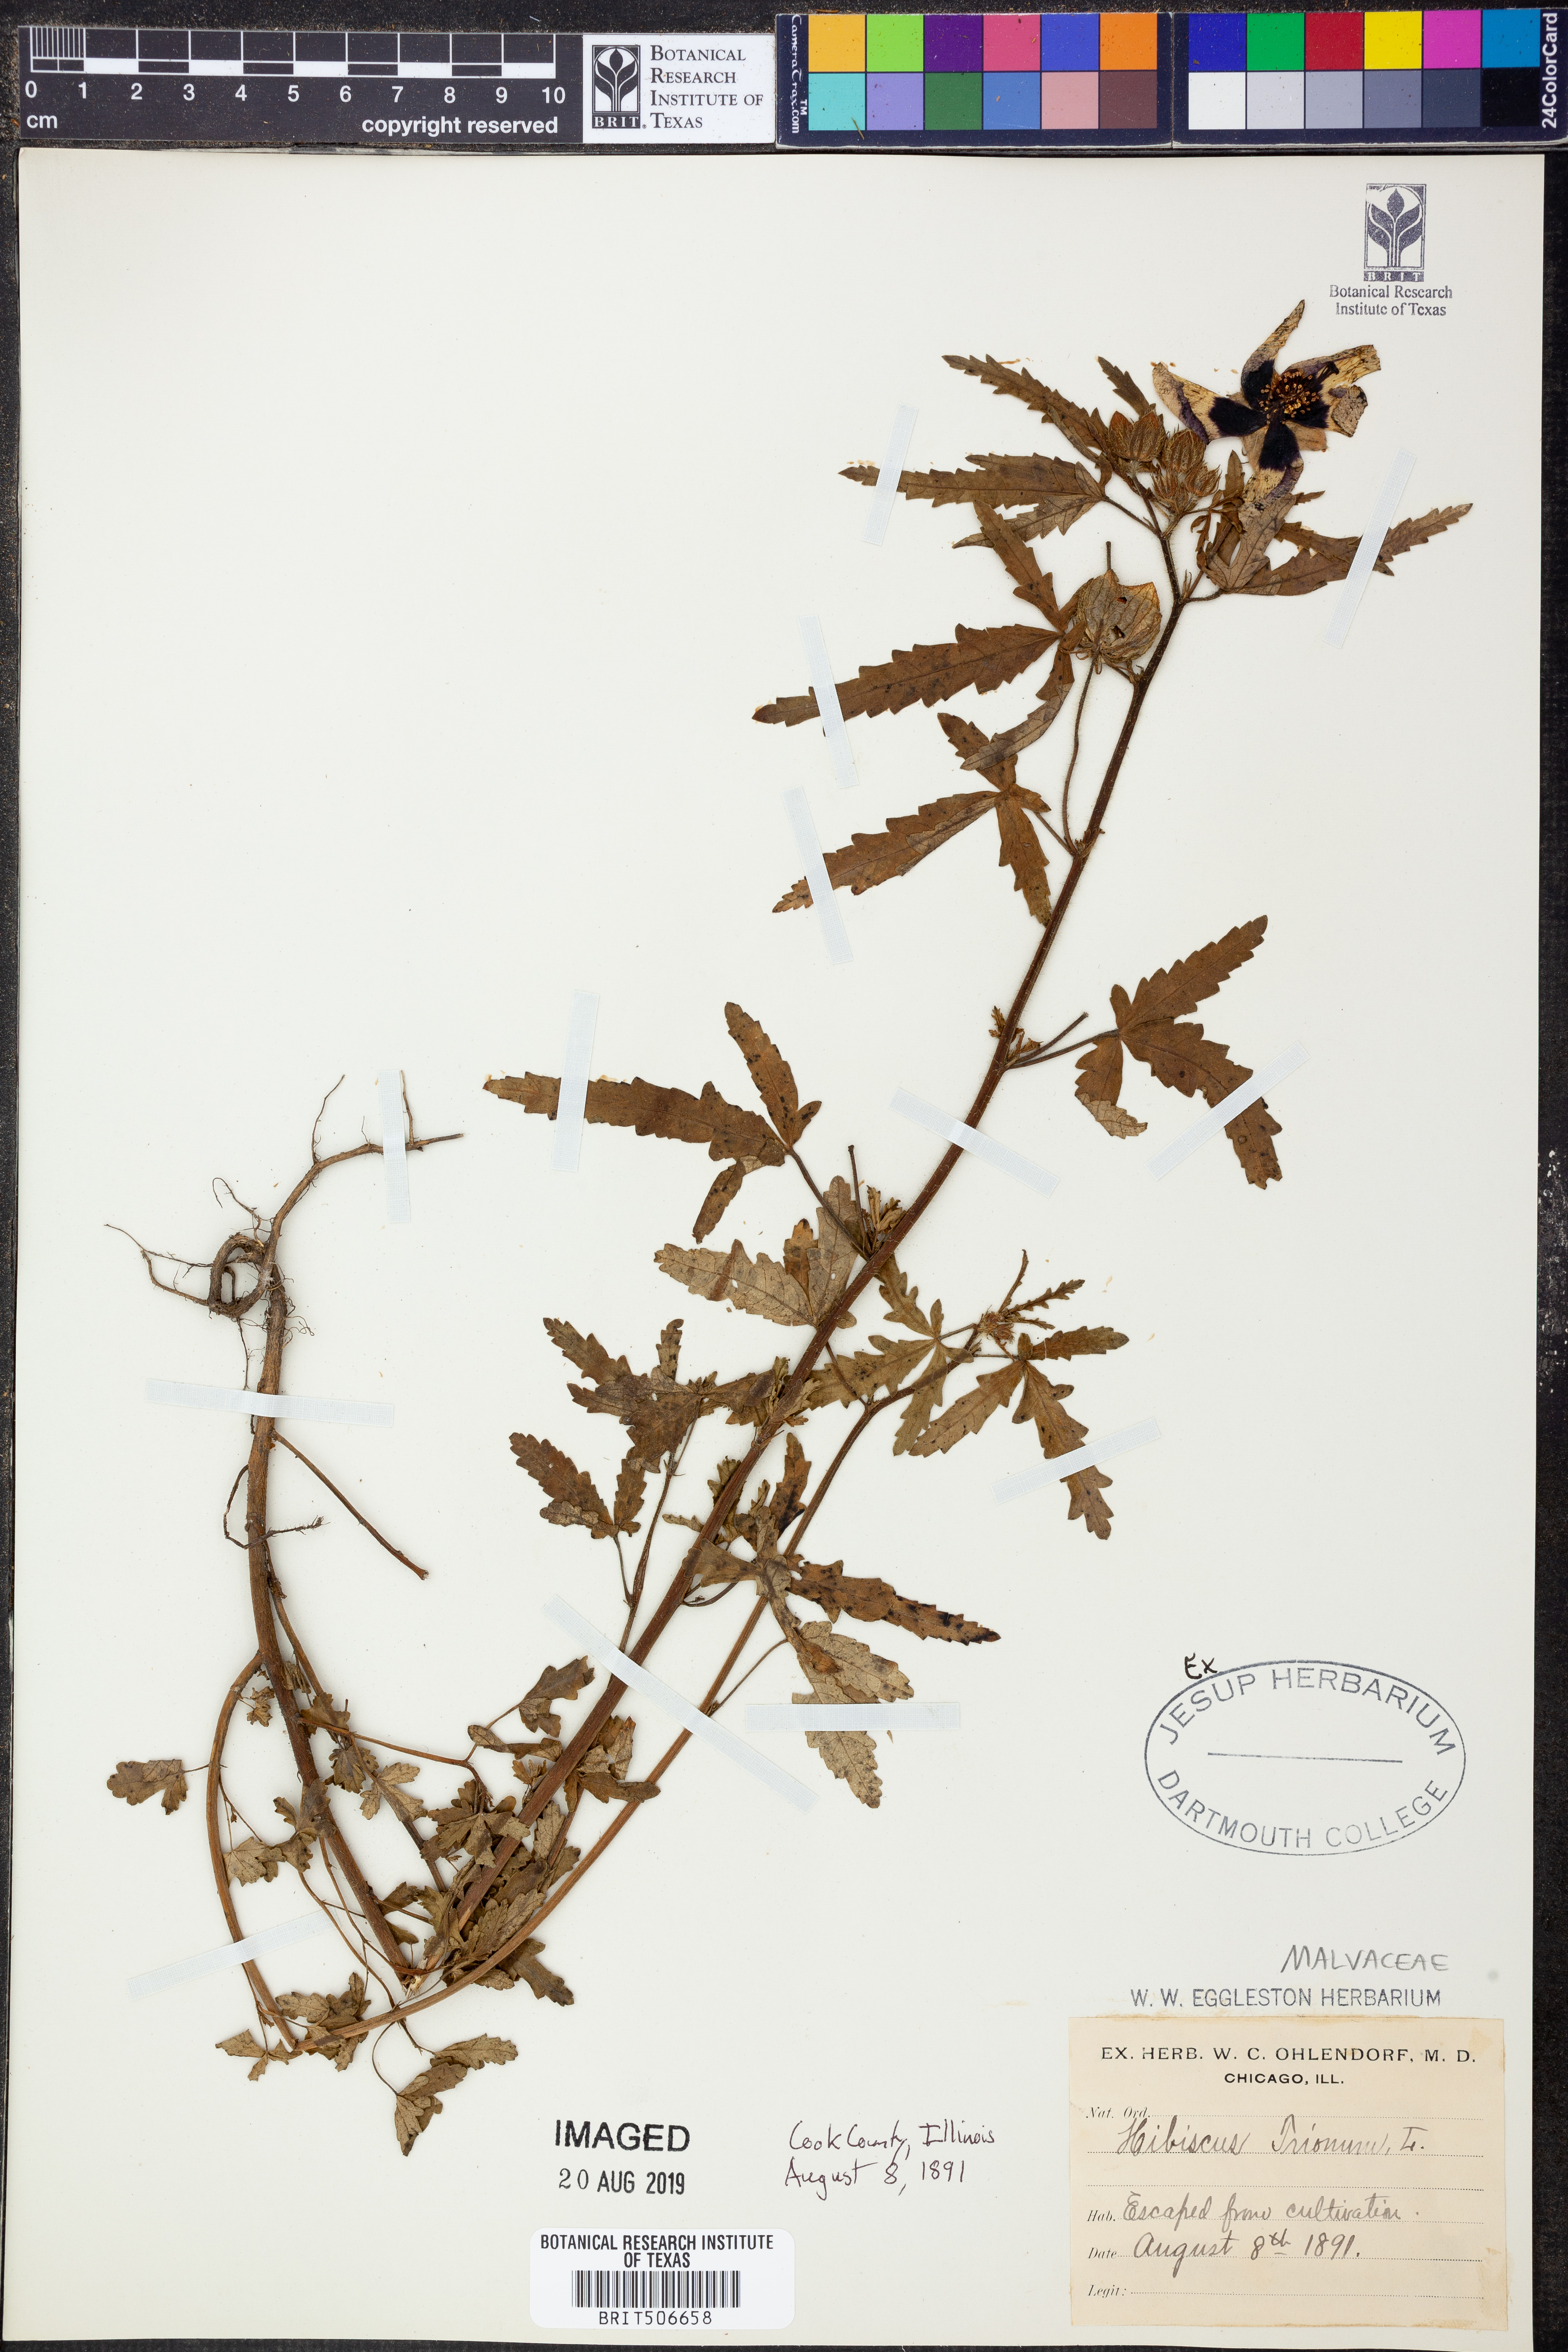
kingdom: Plantae
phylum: Tracheophyta
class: Magnoliopsida
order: Malvales
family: Malvaceae
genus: Hibiscus
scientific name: Hibiscus trionum
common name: Bladder ketmia
